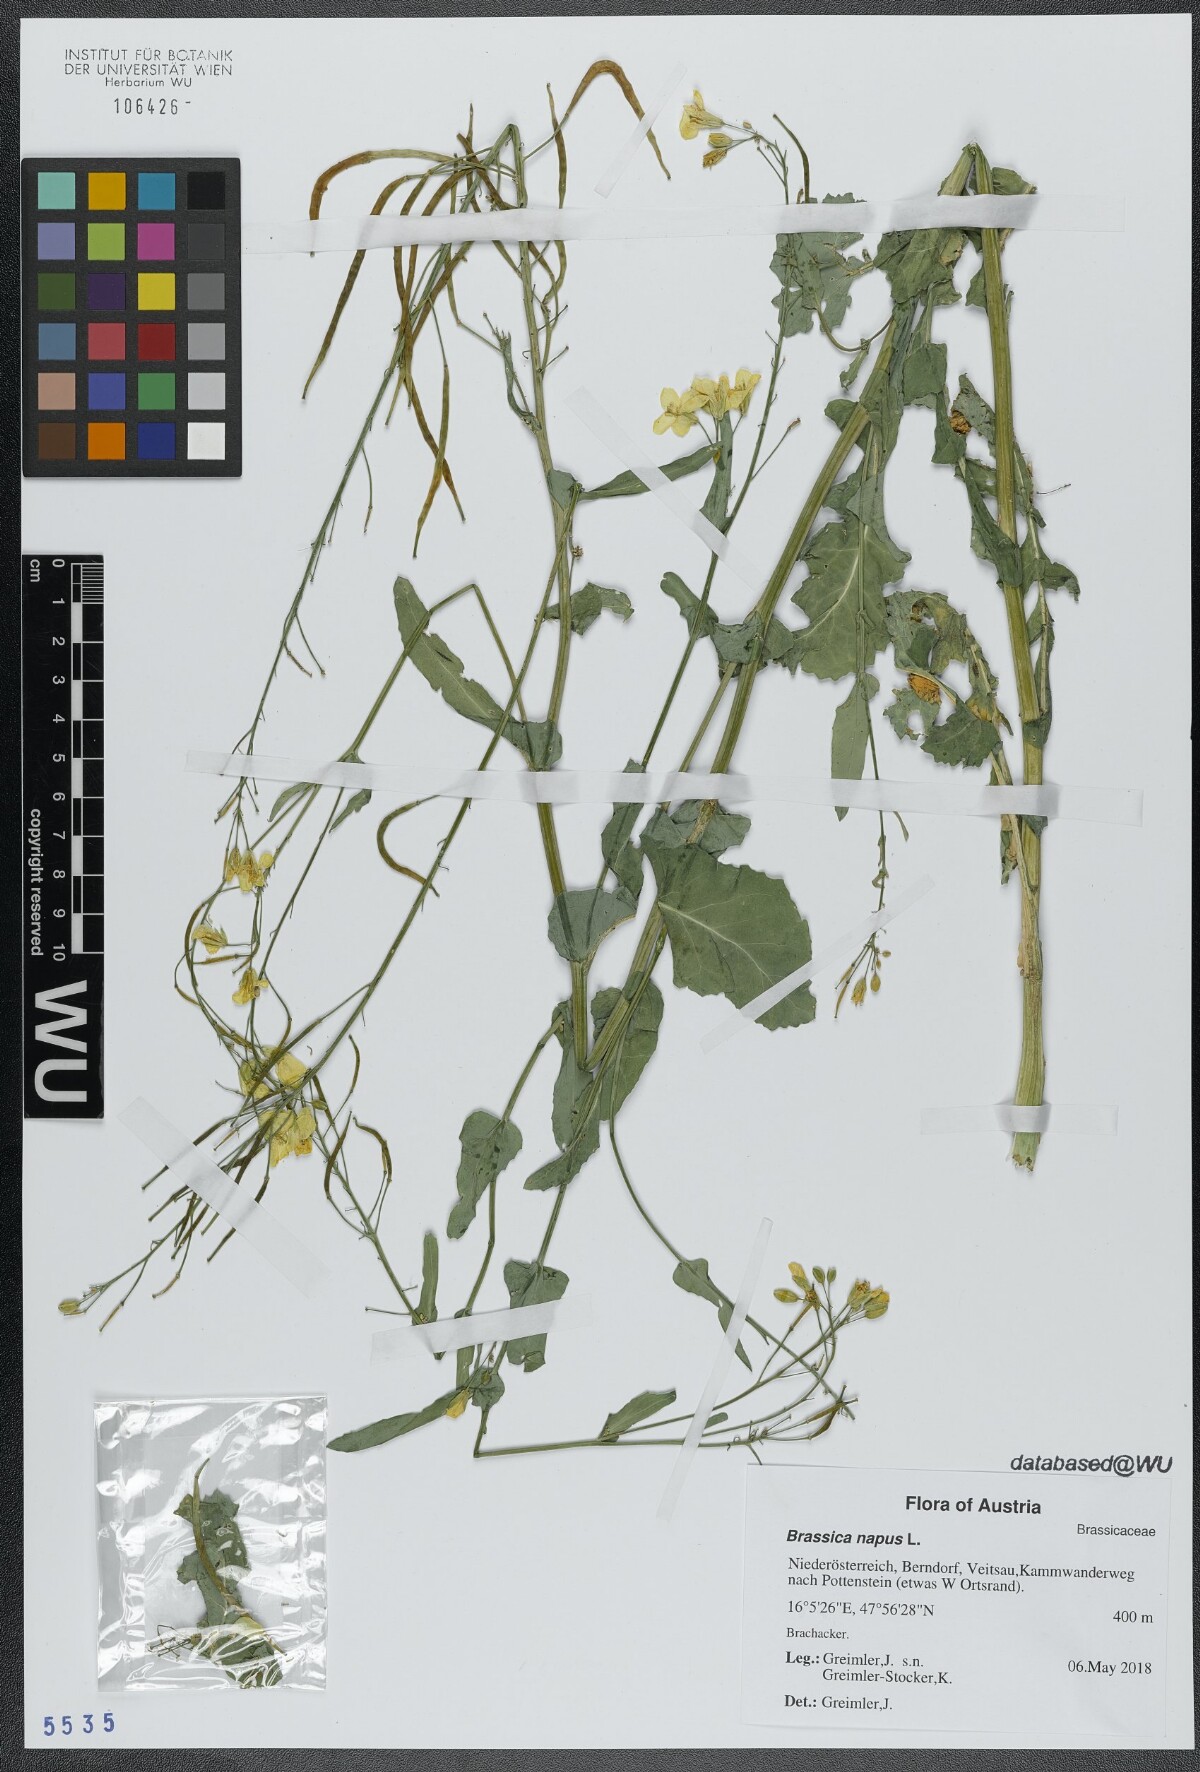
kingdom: Plantae
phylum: Tracheophyta
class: Magnoliopsida
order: Brassicales
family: Brassicaceae
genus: Brassica
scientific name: Brassica napus
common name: Rape
